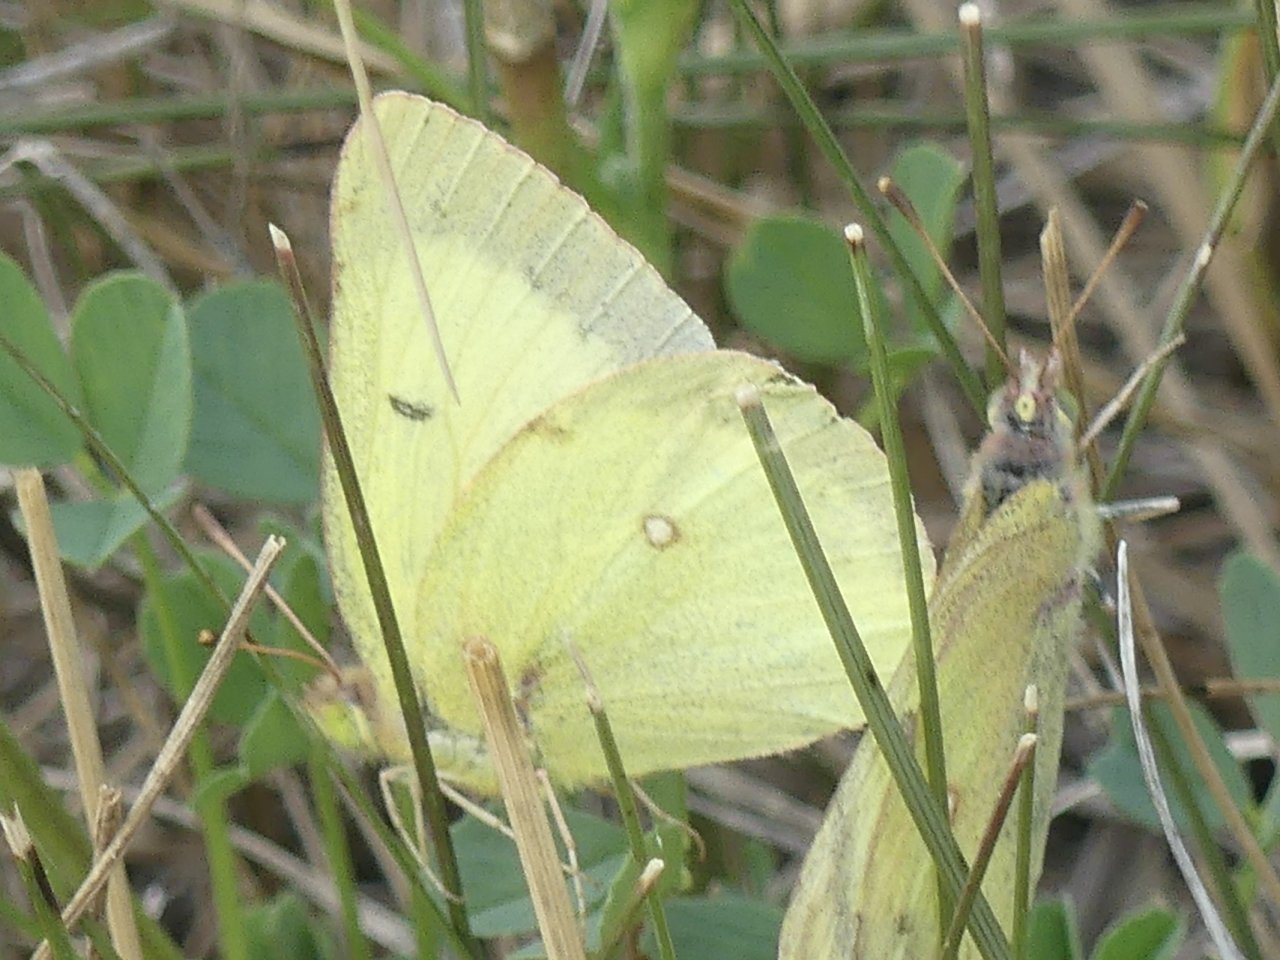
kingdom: Animalia
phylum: Arthropoda
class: Insecta
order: Lepidoptera
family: Pieridae
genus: Colias
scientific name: Colias philodice
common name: Clouded Sulphur
